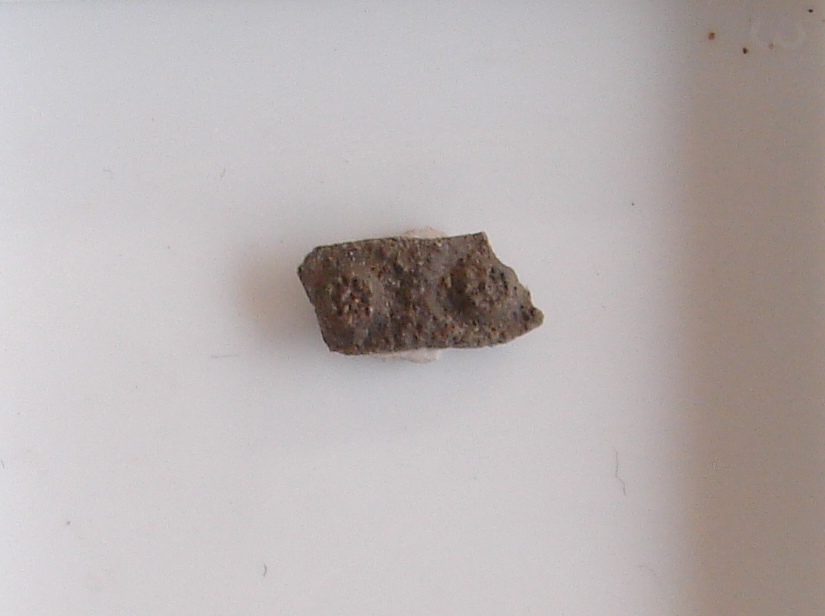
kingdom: Animalia
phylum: Echinodermata
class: Echinoidea
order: Cidaroida
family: Heterocidaridae
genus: Heterocidaris
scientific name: Heterocidaris
